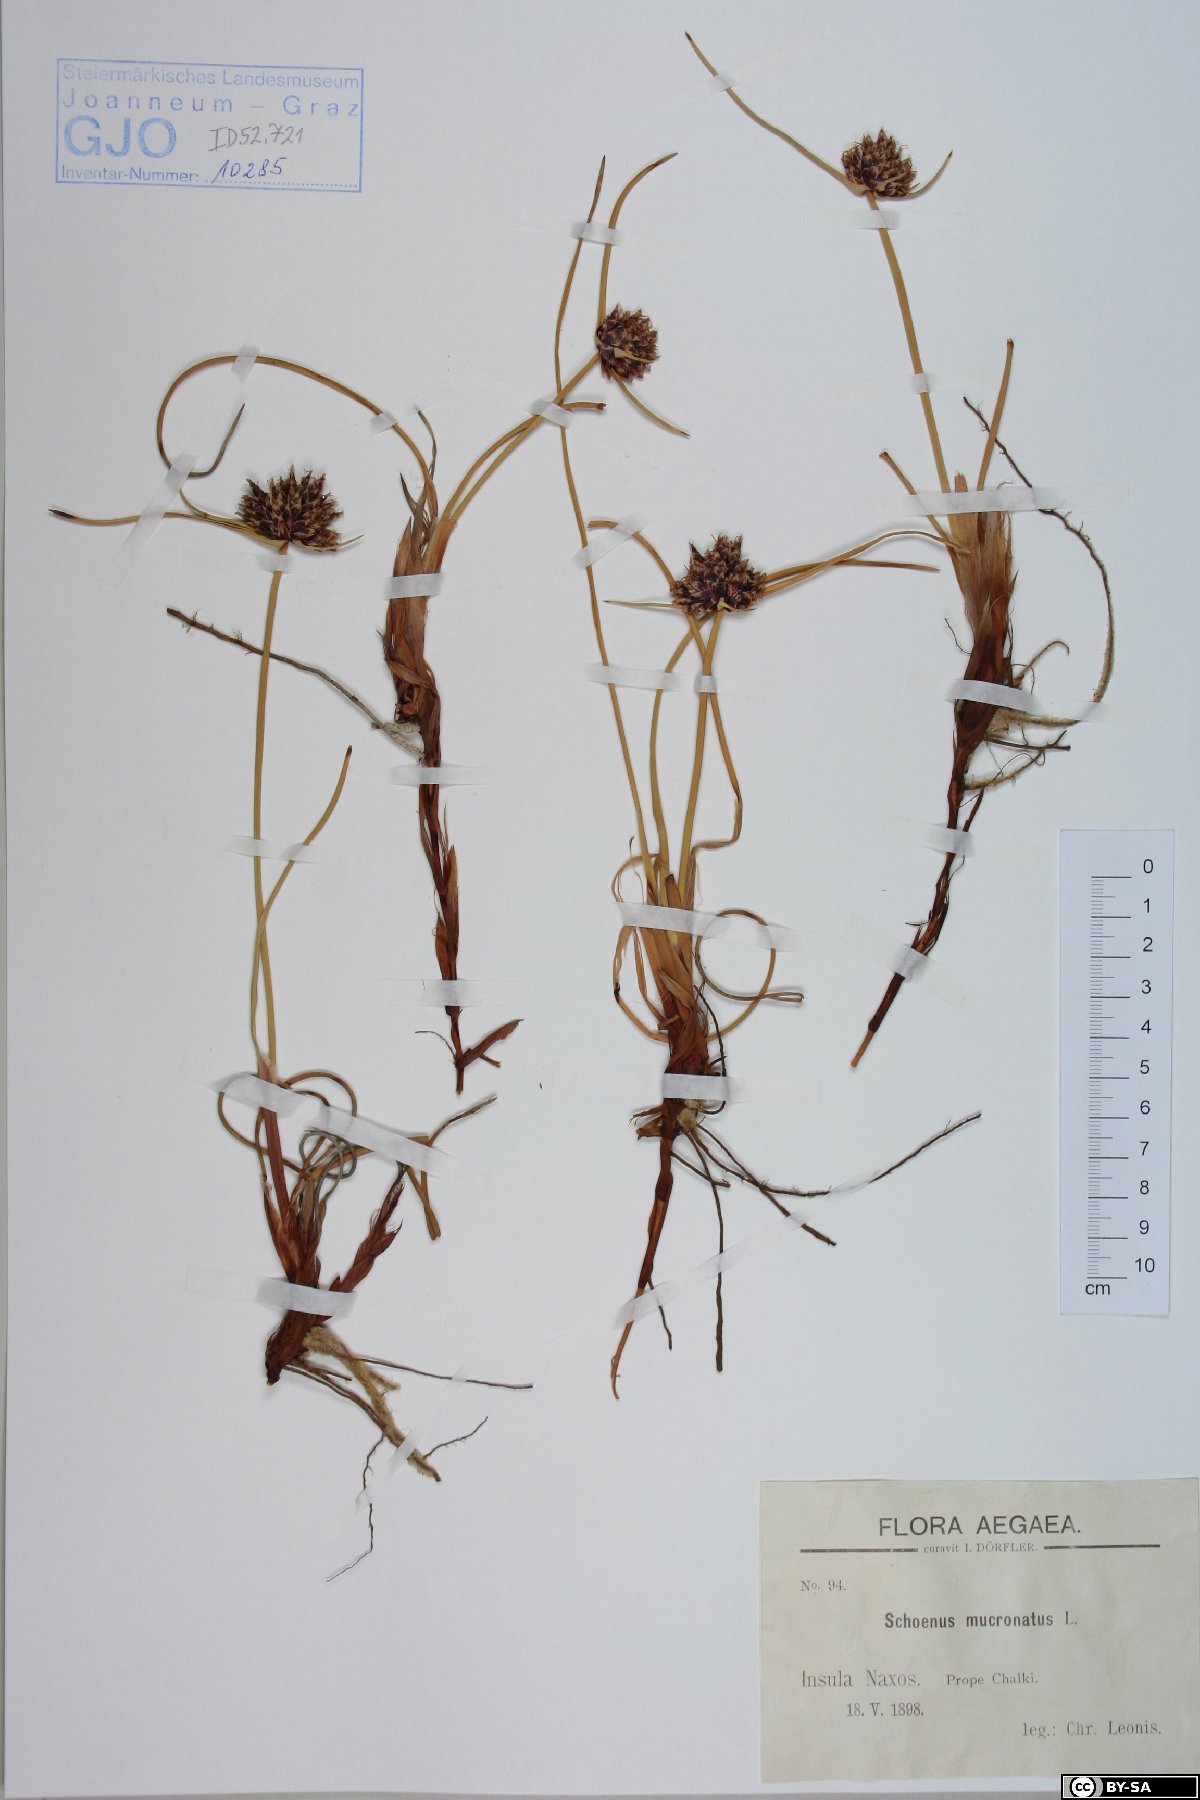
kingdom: Plantae
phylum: Tracheophyta
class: Liliopsida
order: Poales
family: Cyperaceae
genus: Cyperus
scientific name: Cyperus capitatus
